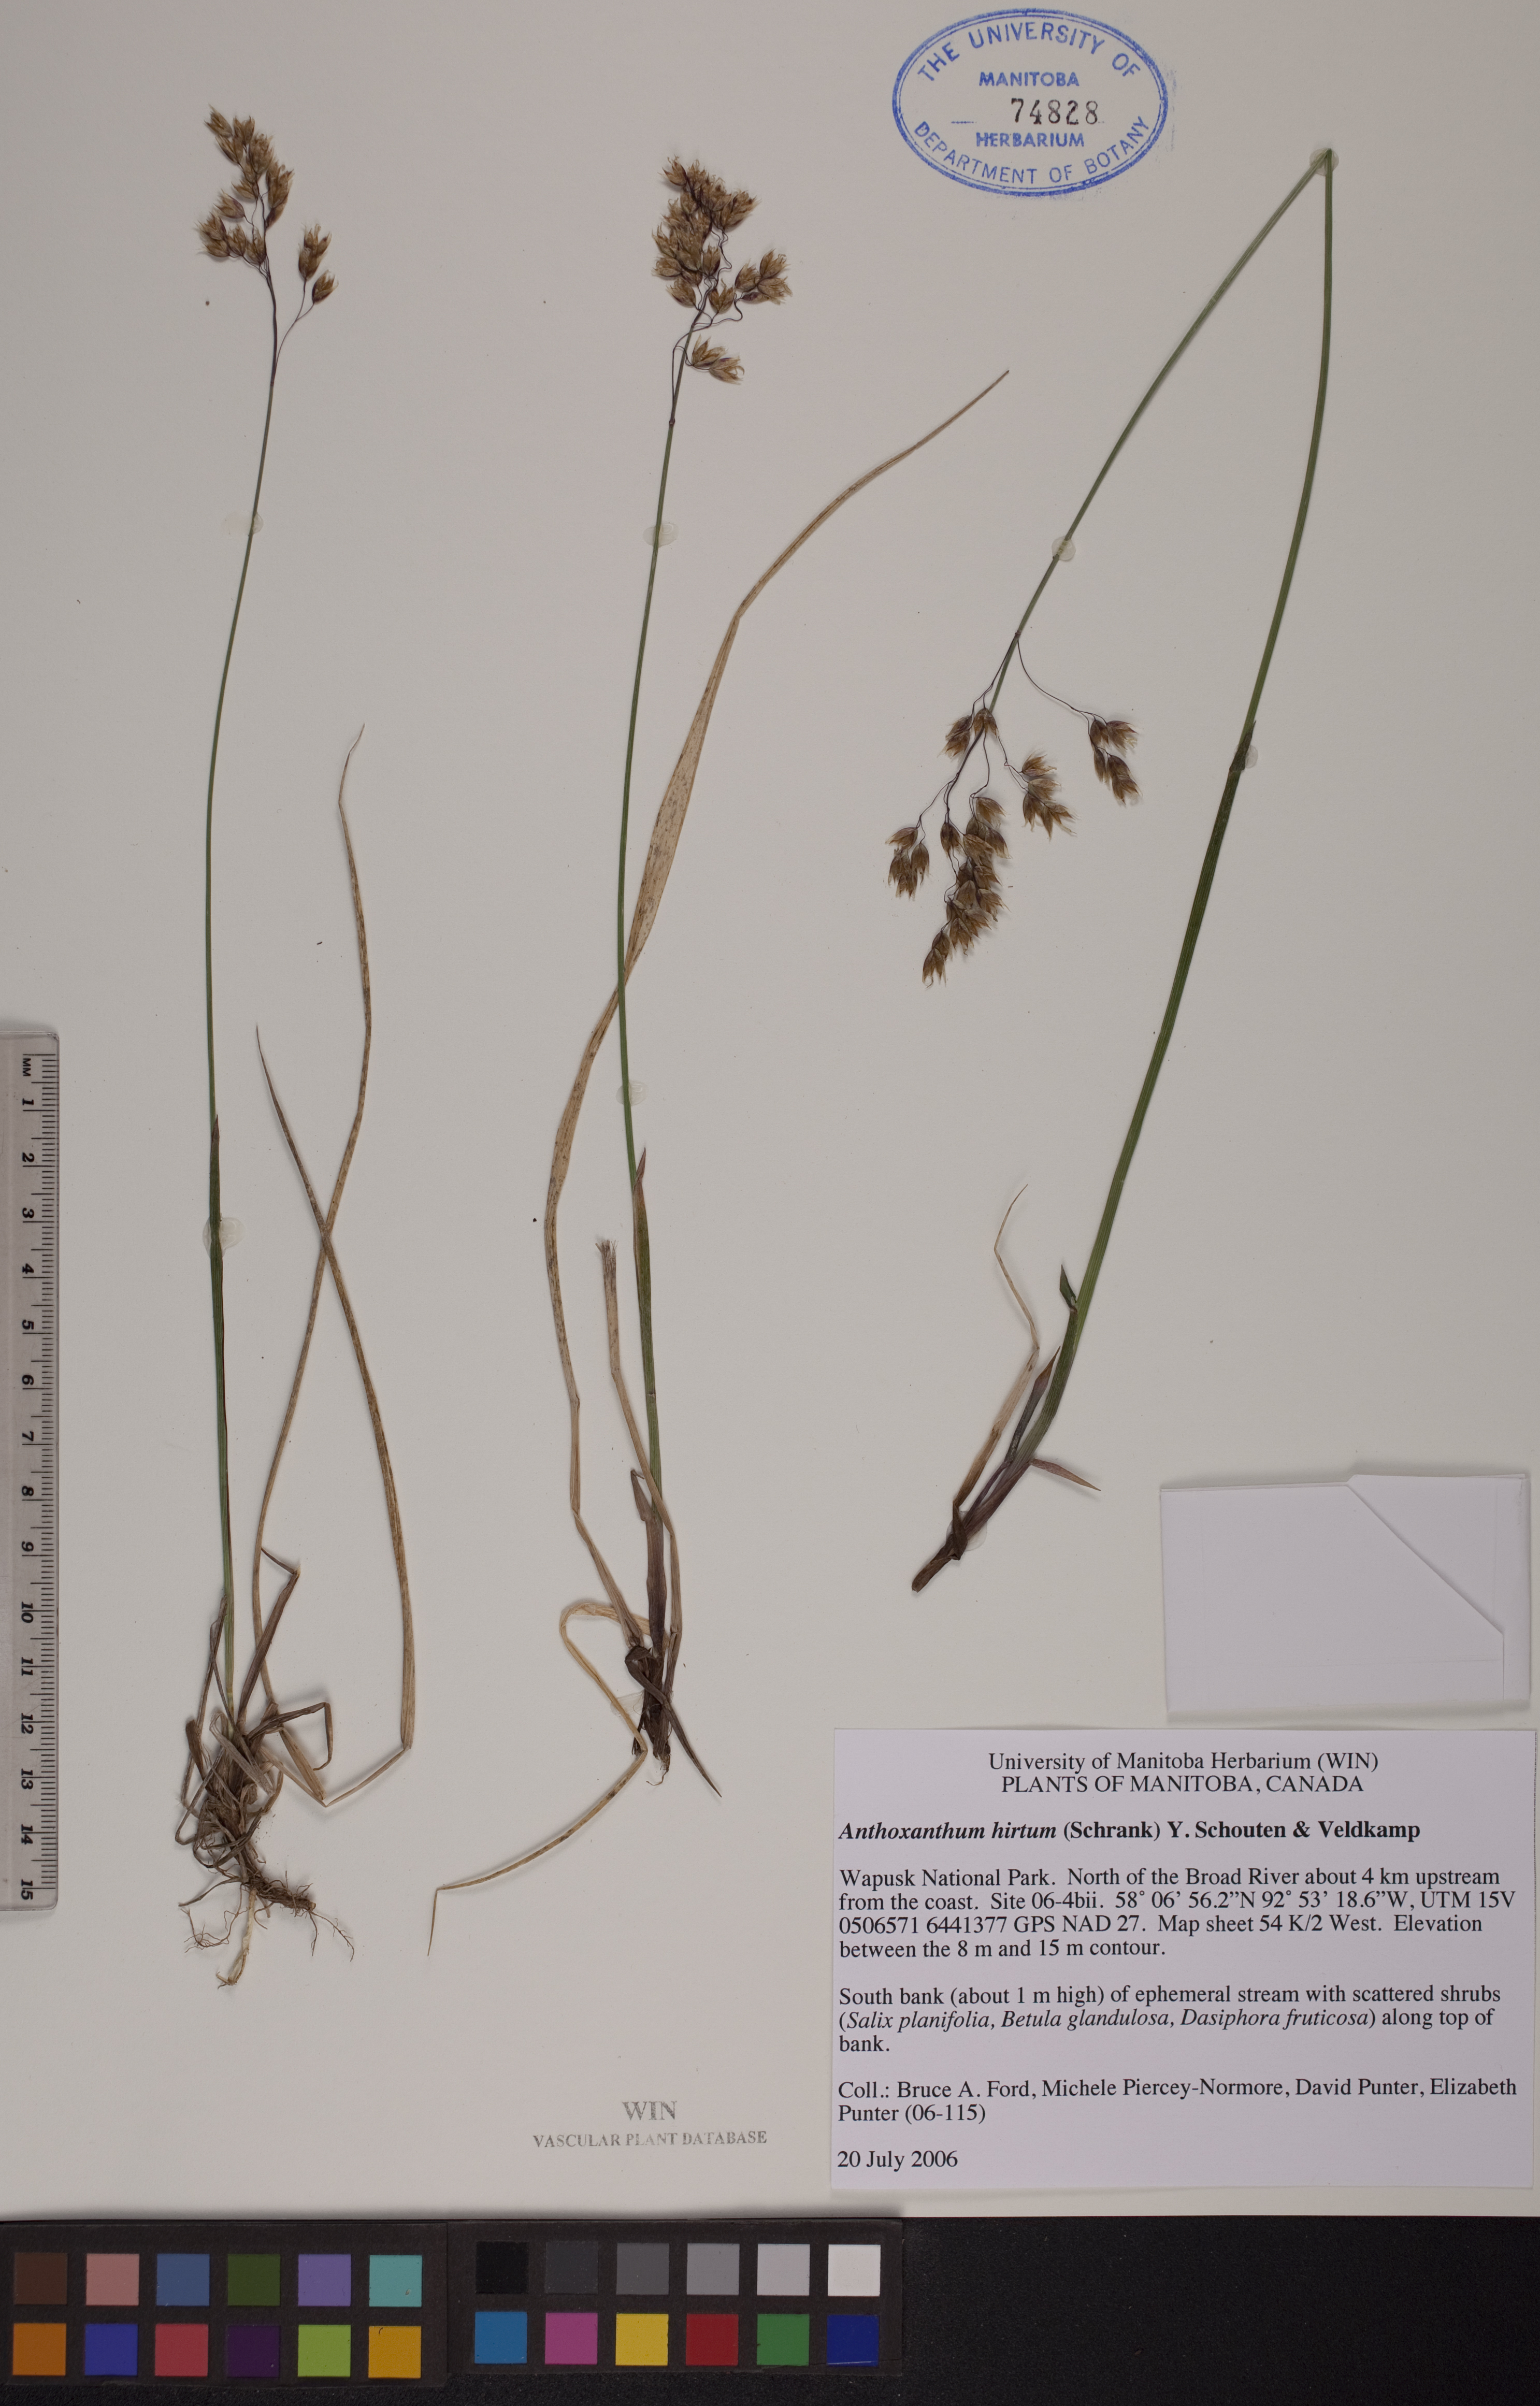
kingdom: Plantae
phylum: Tracheophyta
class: Liliopsida
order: Poales
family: Poaceae
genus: Anthoxanthum
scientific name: Anthoxanthum nitens
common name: Holy grass
